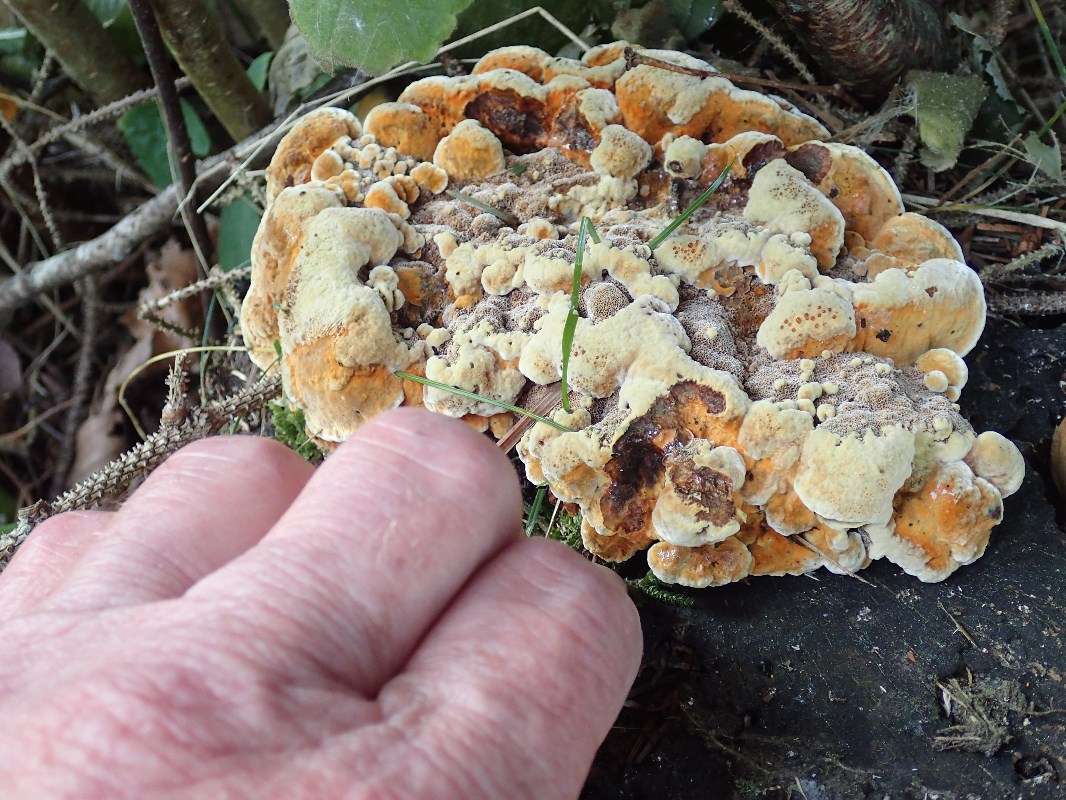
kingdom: Fungi
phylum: Basidiomycota
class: Agaricomycetes
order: Hymenochaetales
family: Hymenochaetaceae
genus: Xanthoporia
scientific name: Xanthoporia radiata
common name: elle-spejlporesvamp
